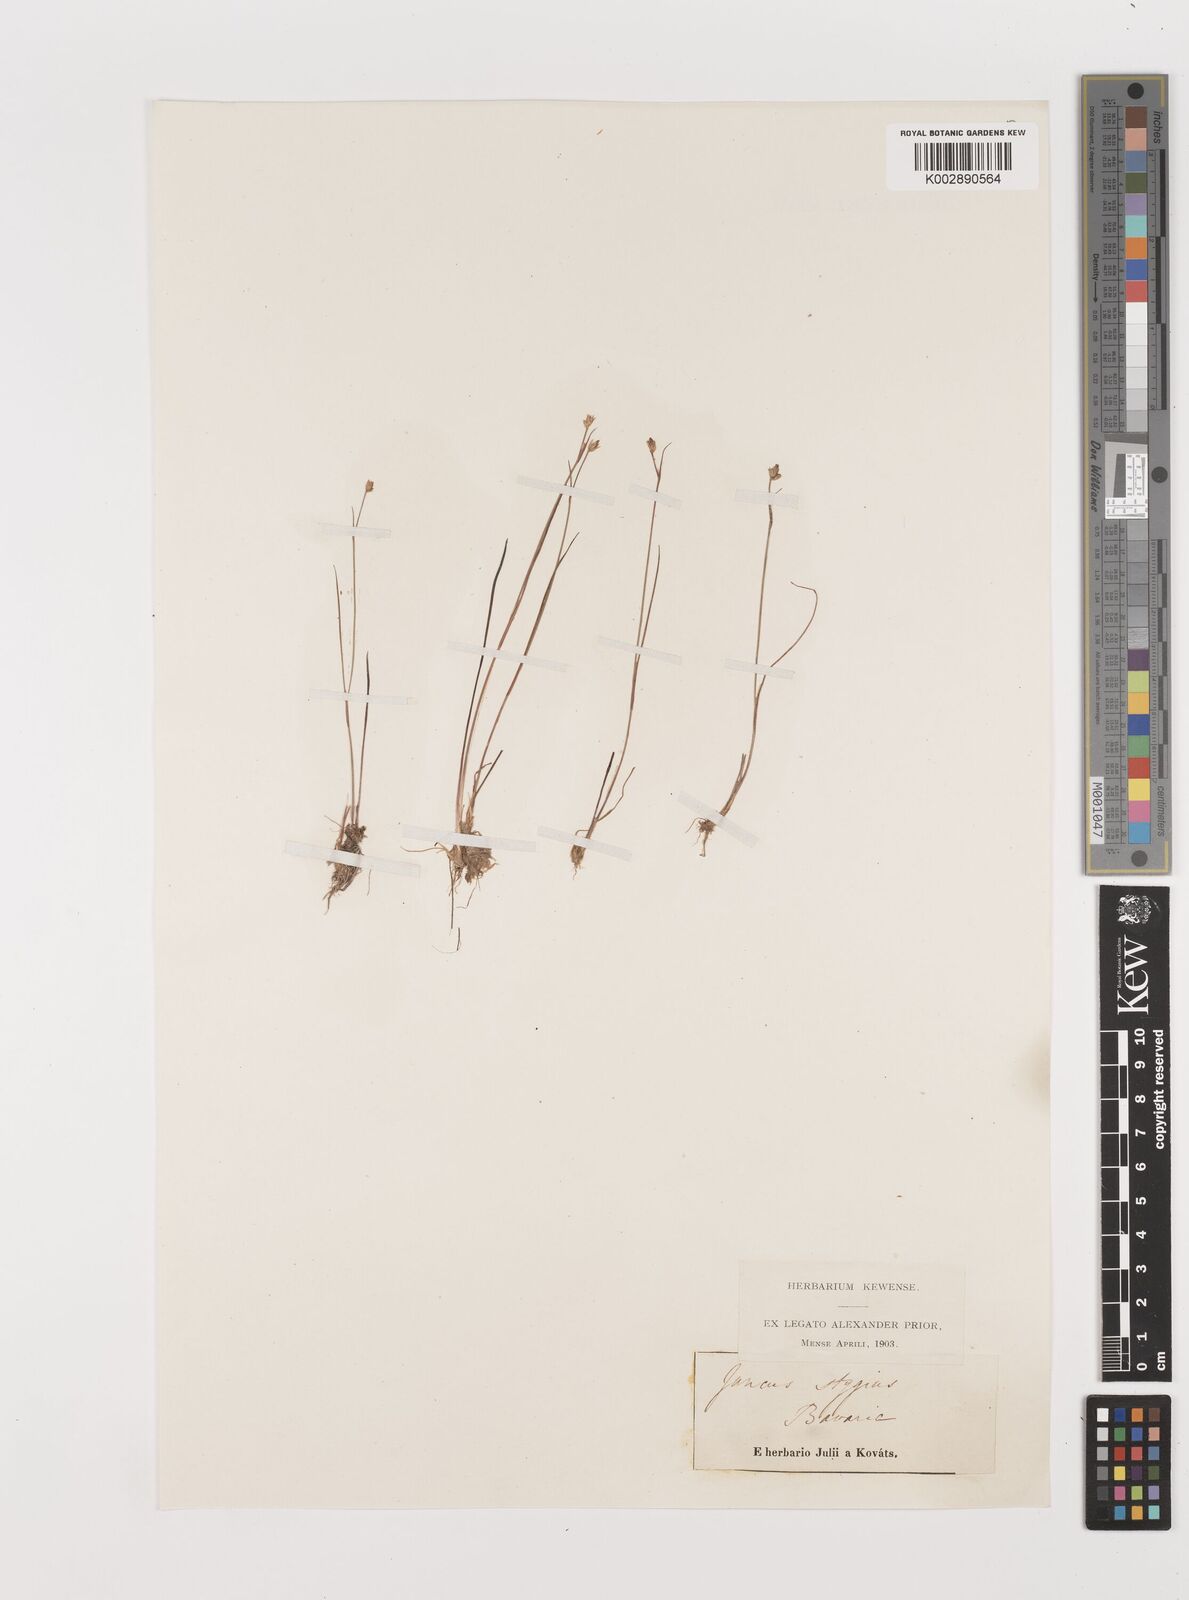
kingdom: Plantae
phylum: Tracheophyta
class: Liliopsida
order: Poales
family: Juncaceae
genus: Juncus
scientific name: Juncus stygius
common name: Bog rush
